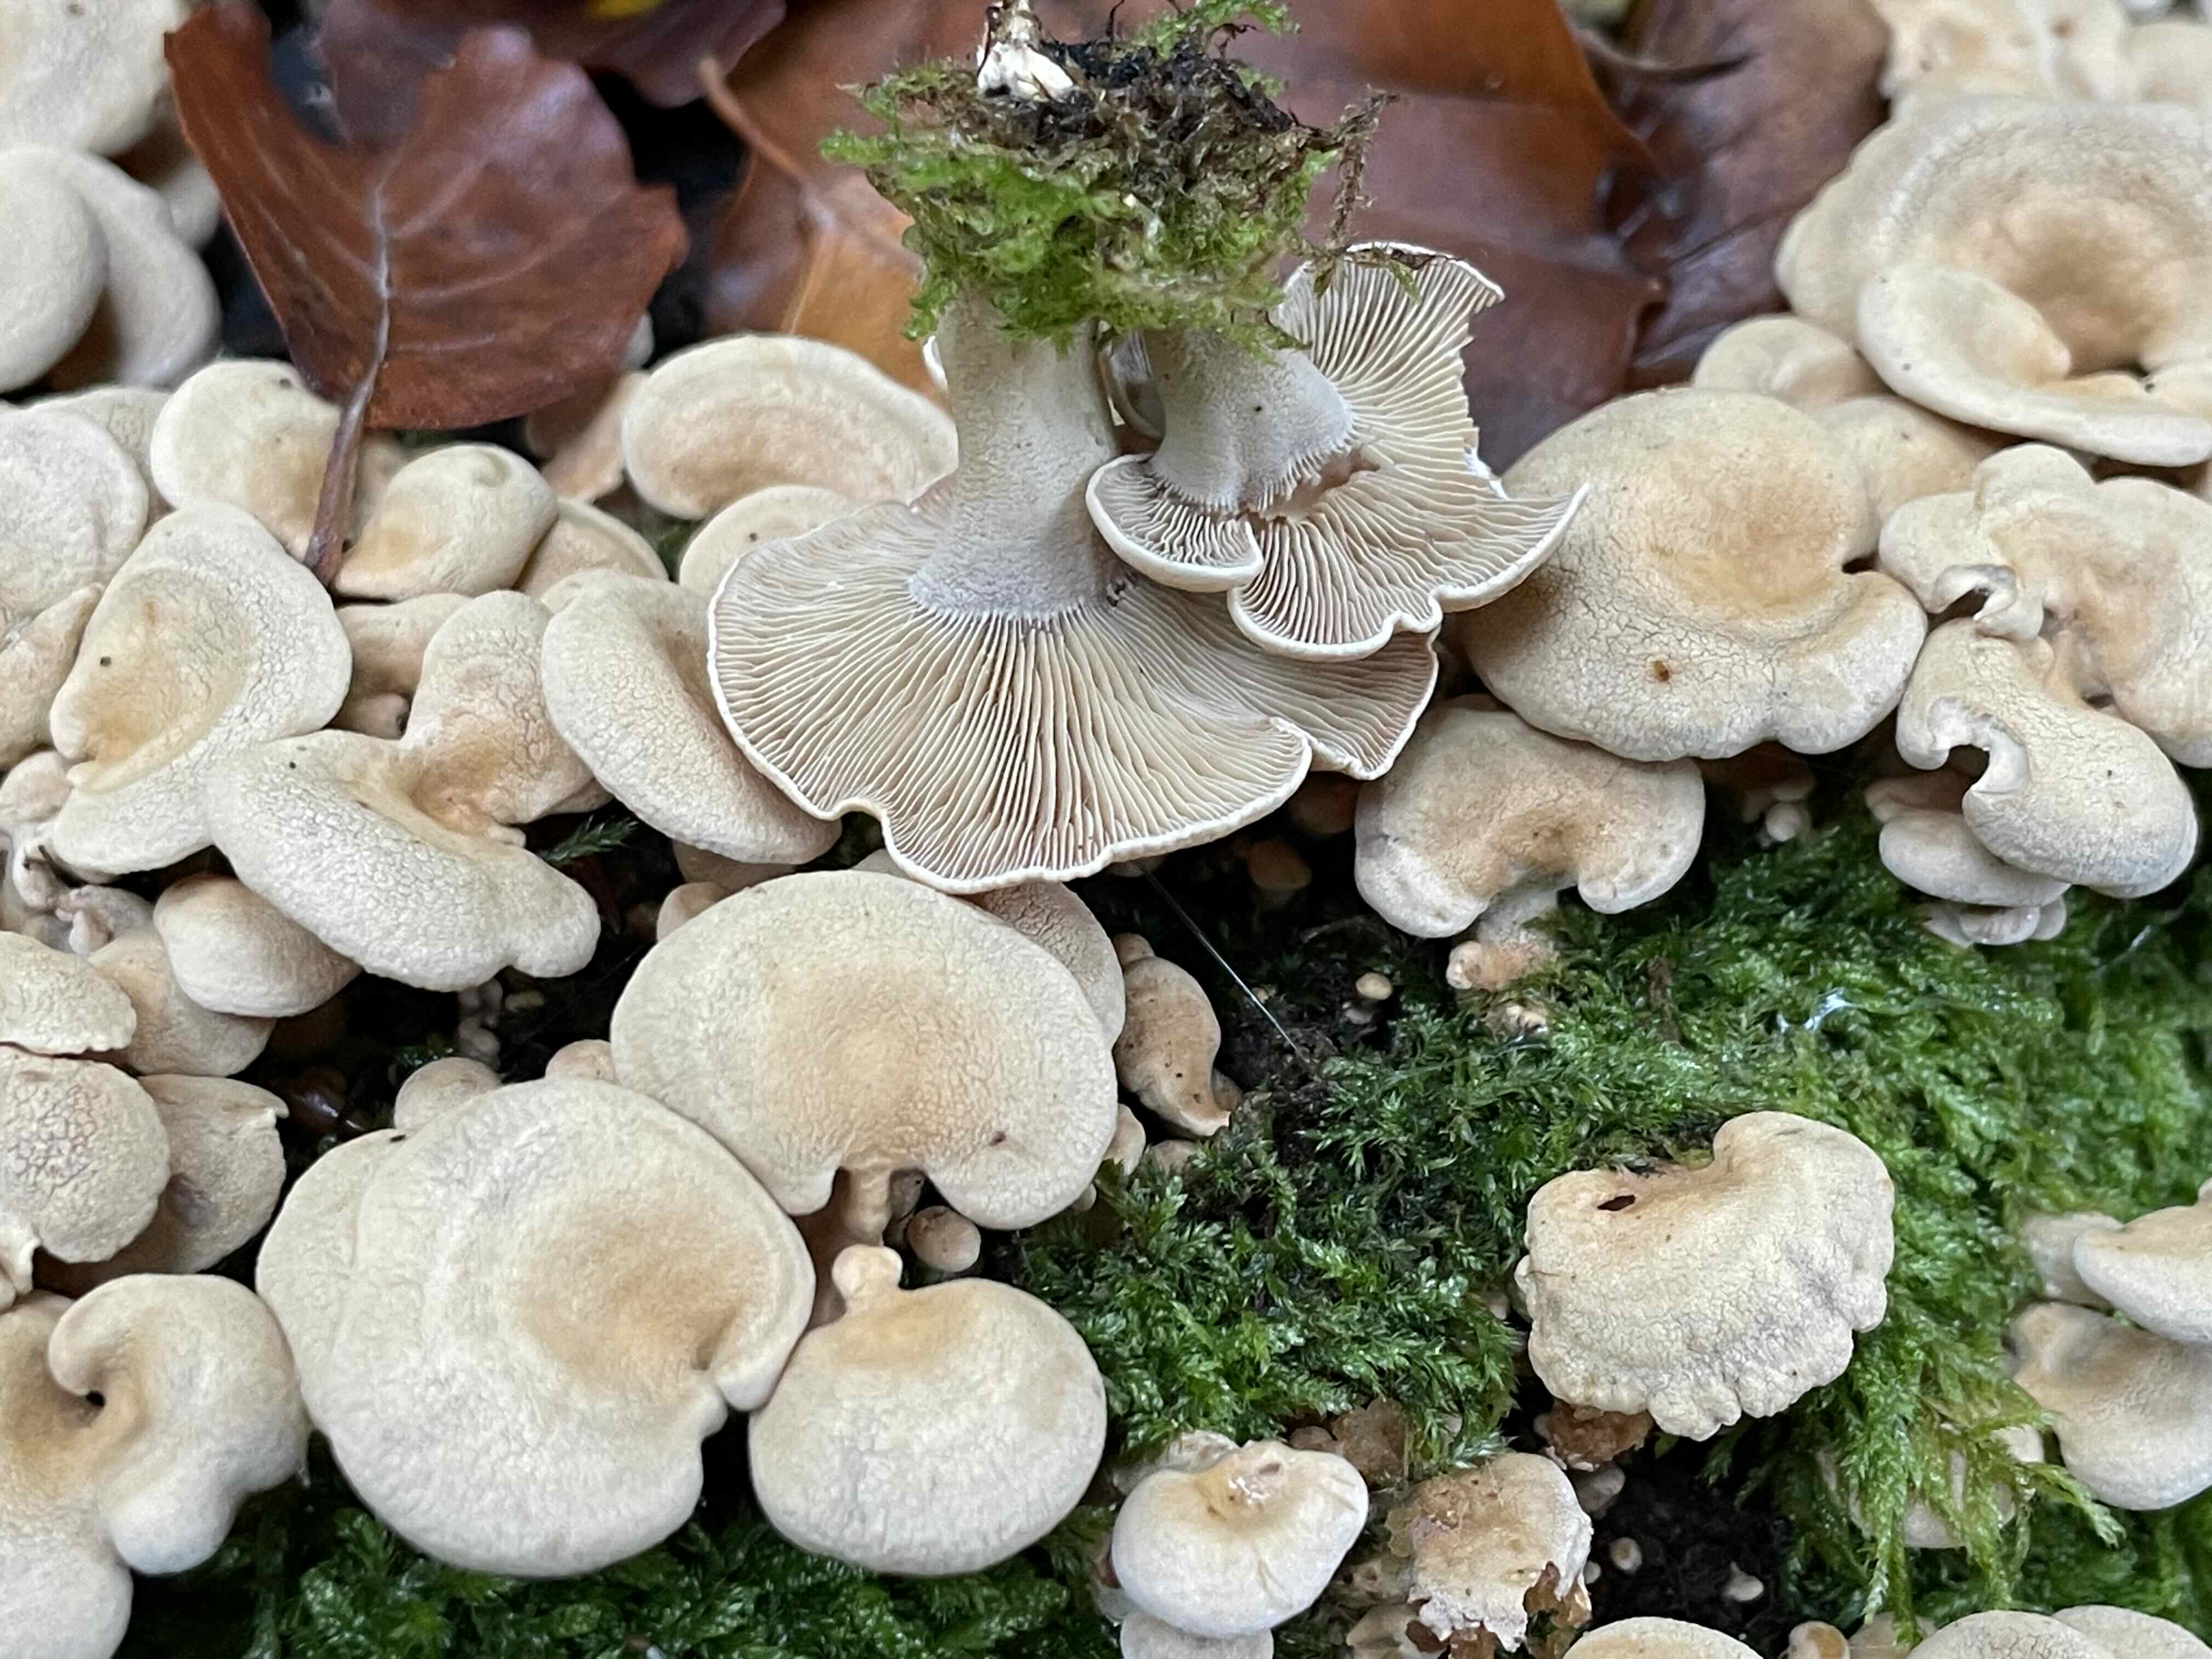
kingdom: Fungi
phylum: Basidiomycota
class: Agaricomycetes
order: Agaricales
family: Mycenaceae
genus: Panellus
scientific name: Panellus stipticus
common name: kliddet epaulethat
